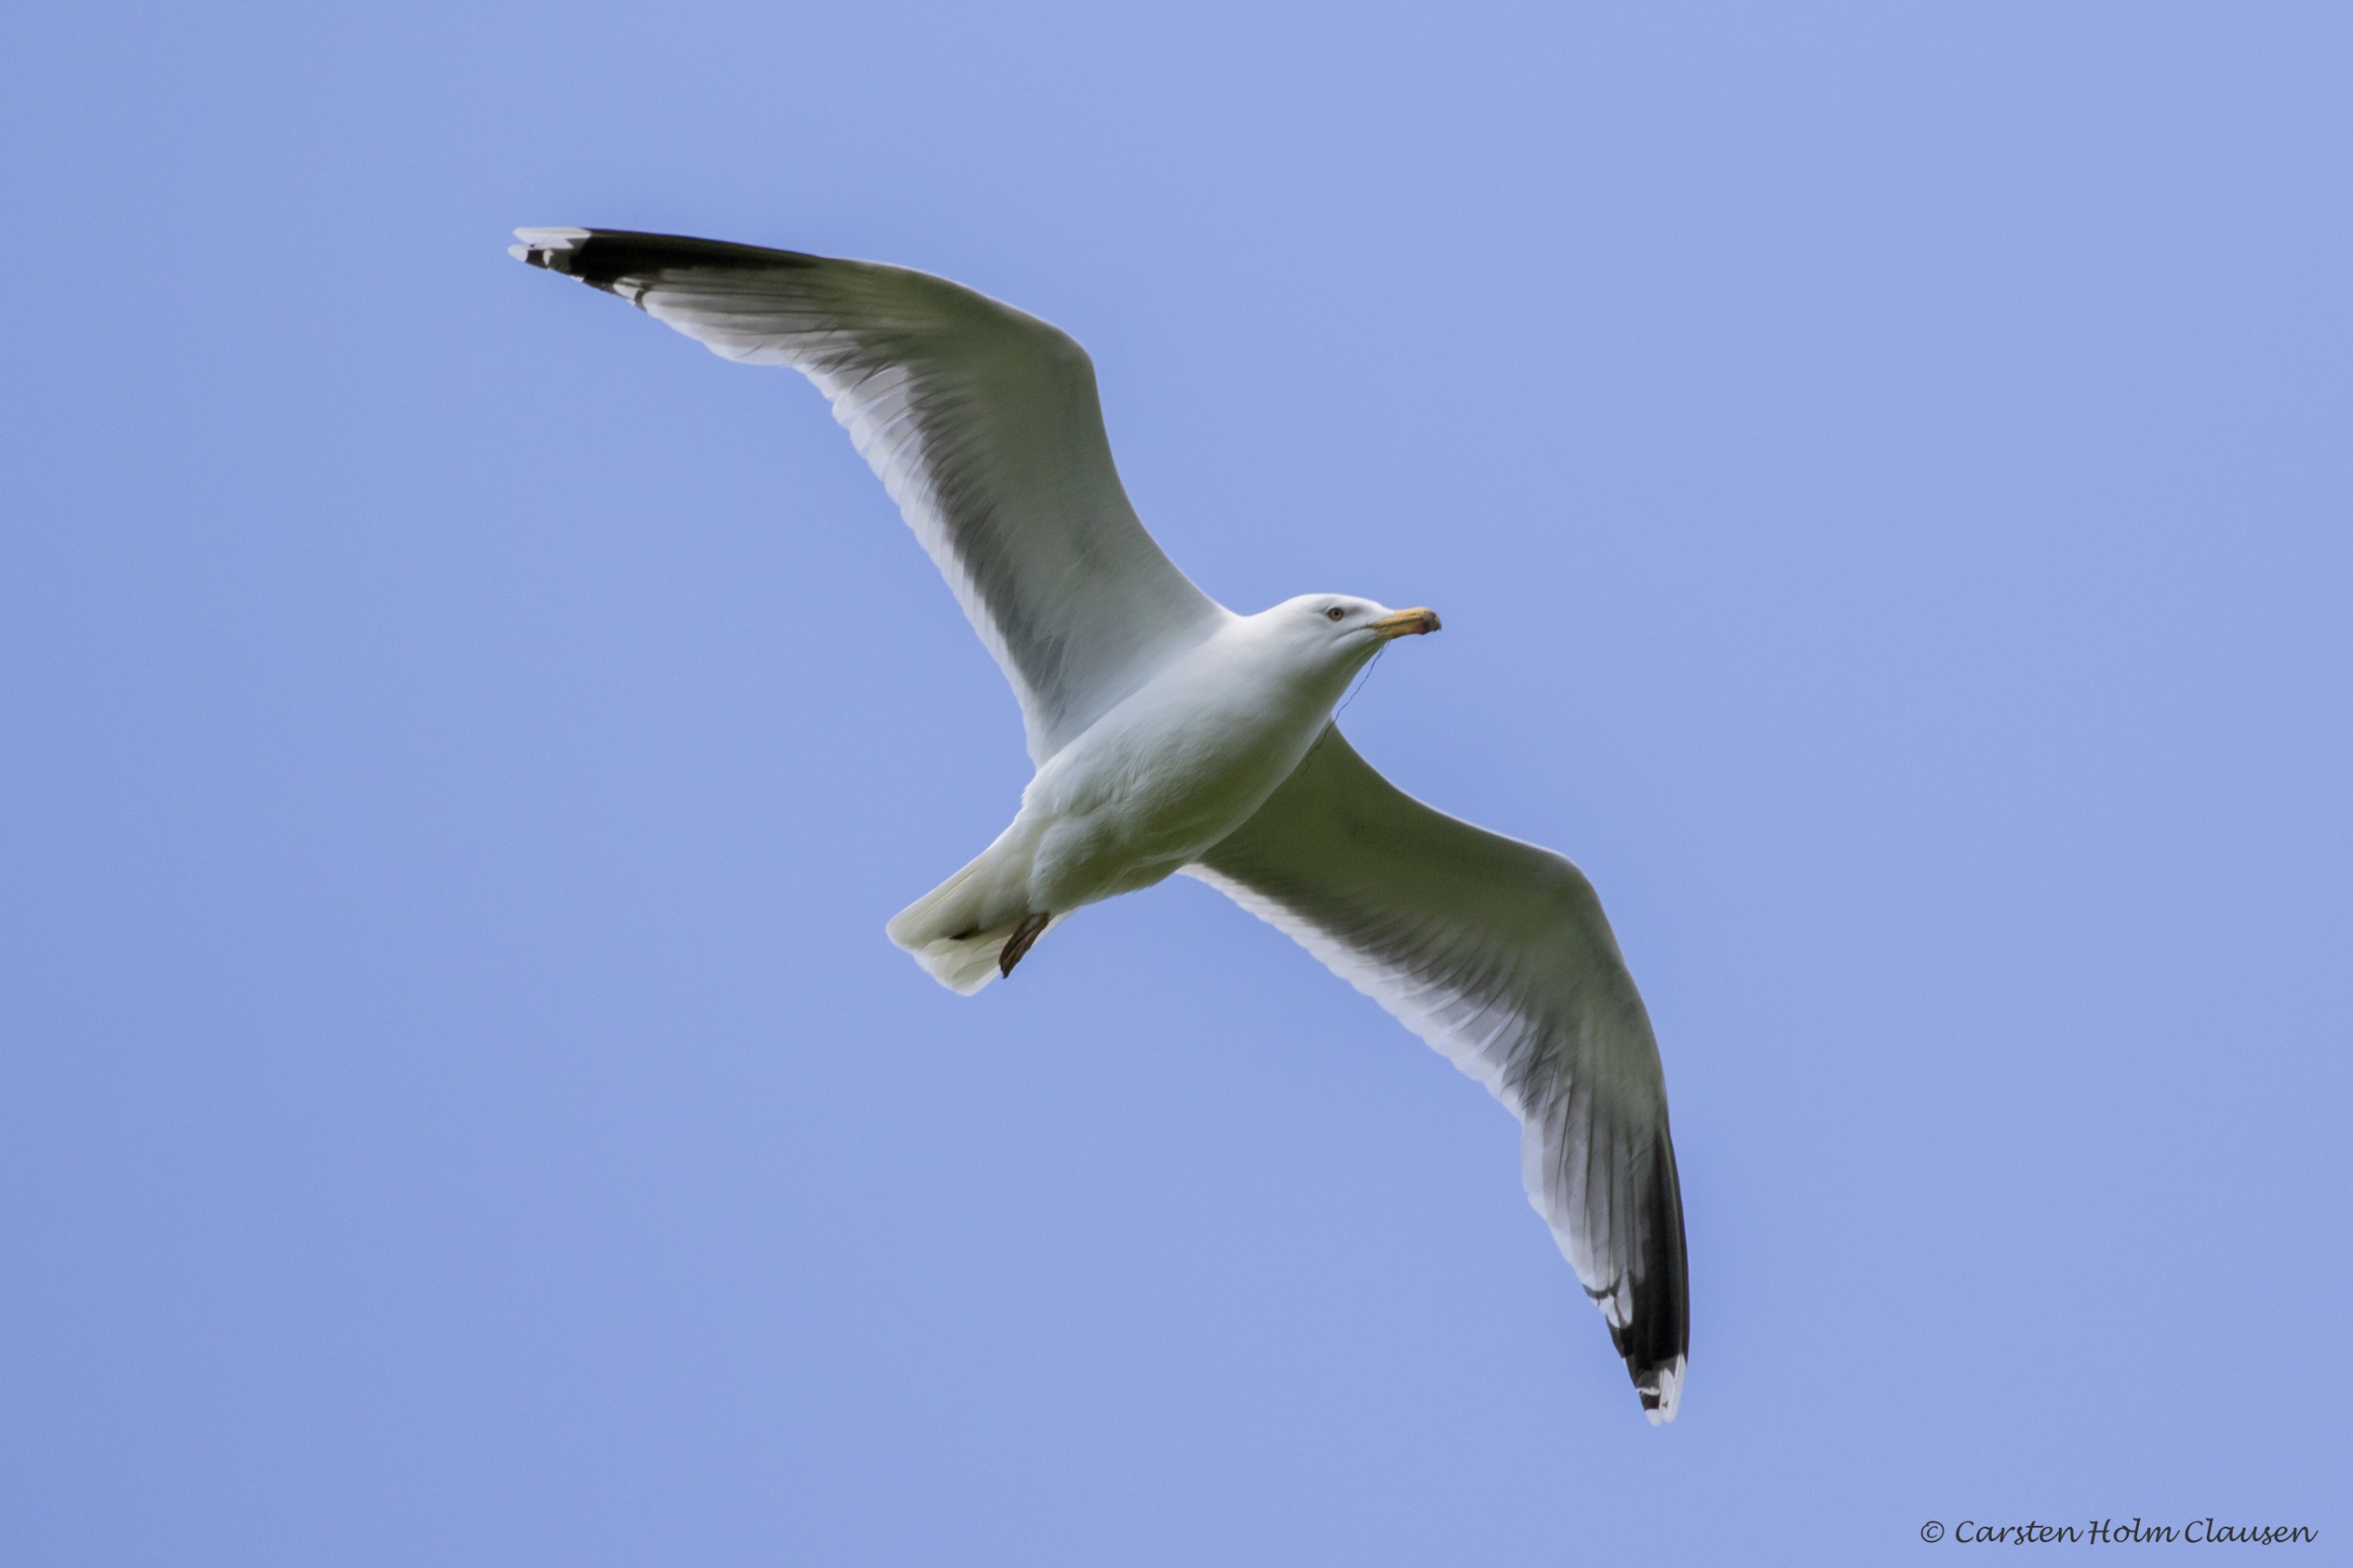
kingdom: Animalia
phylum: Chordata
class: Aves
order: Charadriiformes
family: Laridae
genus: Larus
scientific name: Larus argentatus
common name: Sølvmåge
